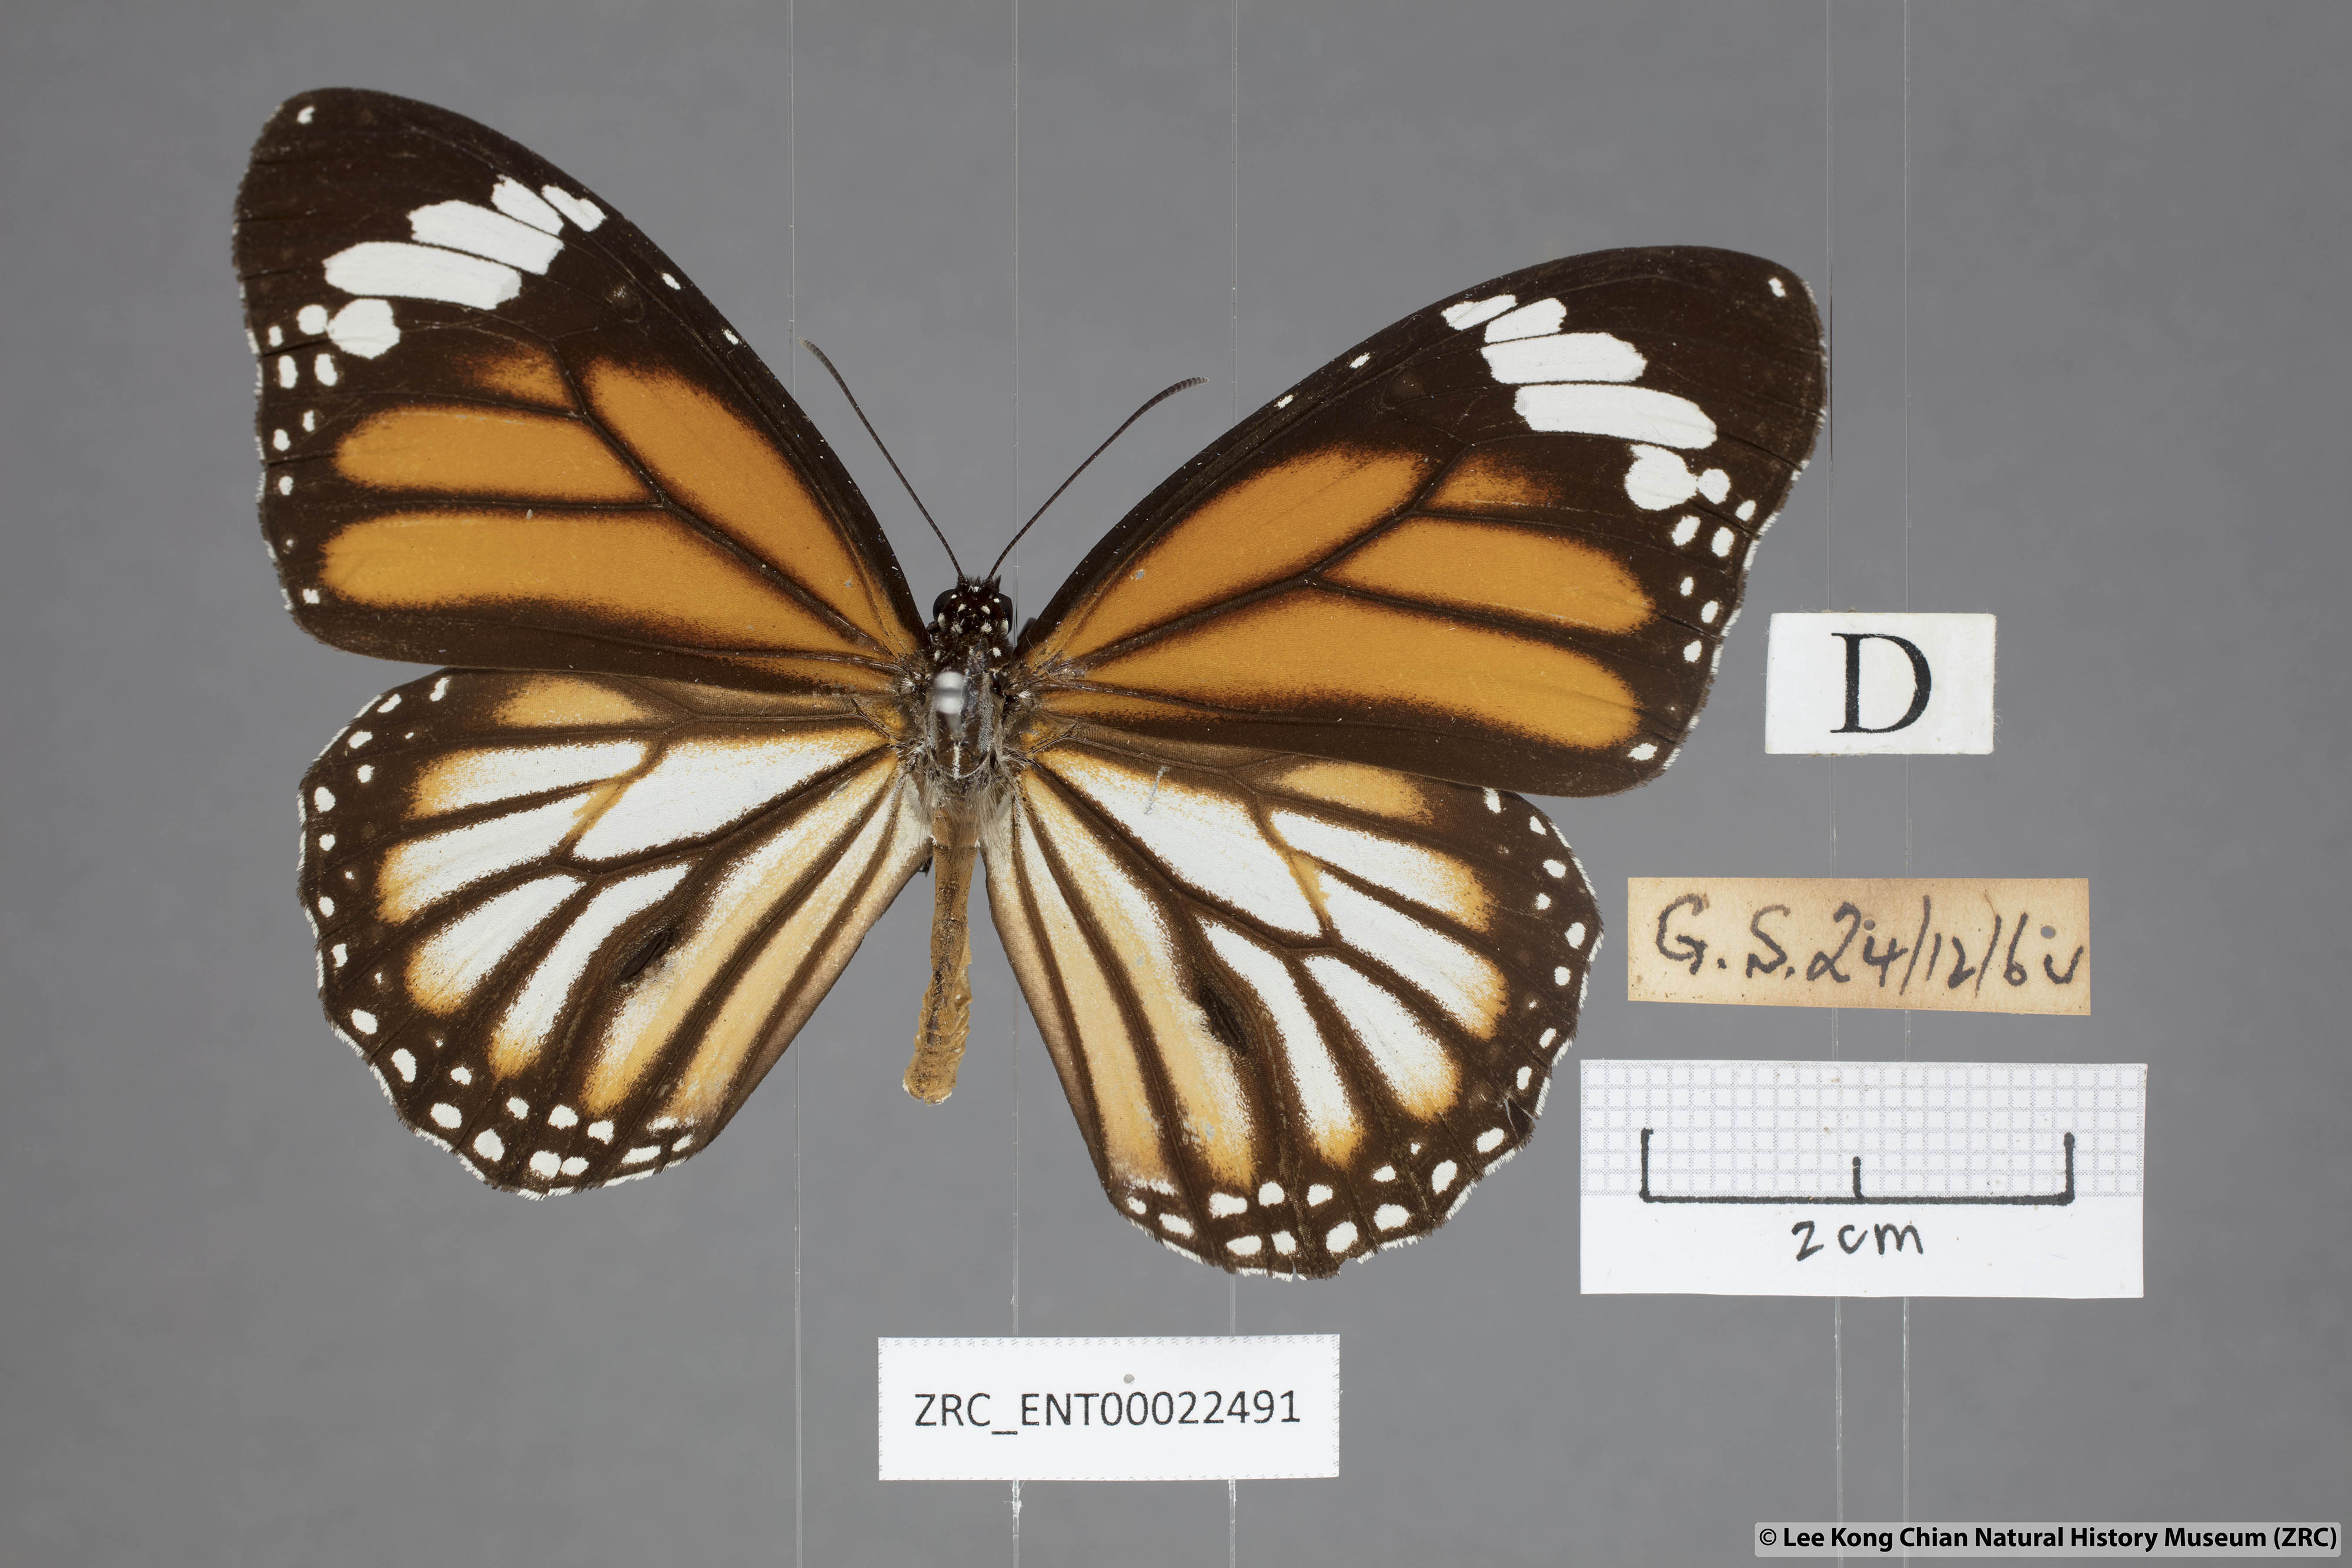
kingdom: Animalia
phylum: Arthropoda
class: Insecta
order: Lepidoptera
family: Nymphalidae
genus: Danaus
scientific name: Danaus genutia
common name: Common tiger butterfly
